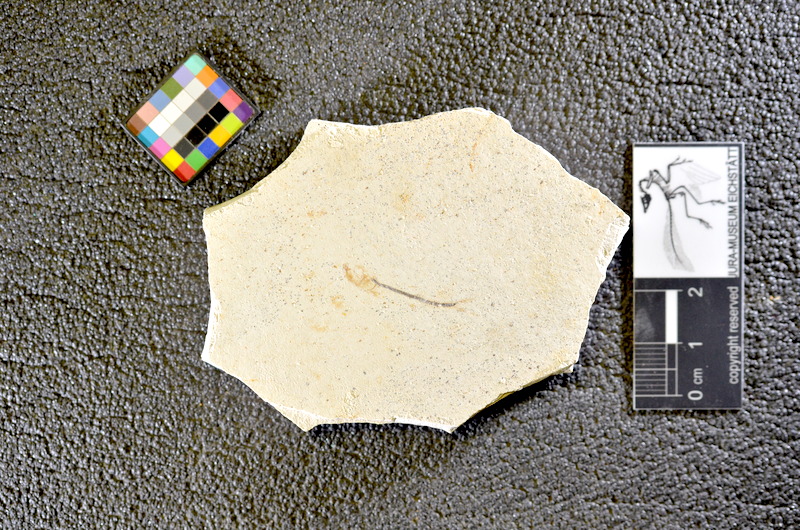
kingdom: Animalia
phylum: Chordata
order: Salmoniformes
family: Orthogonikleithridae
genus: Orthogonikleithrus
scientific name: Orthogonikleithrus hoelli
